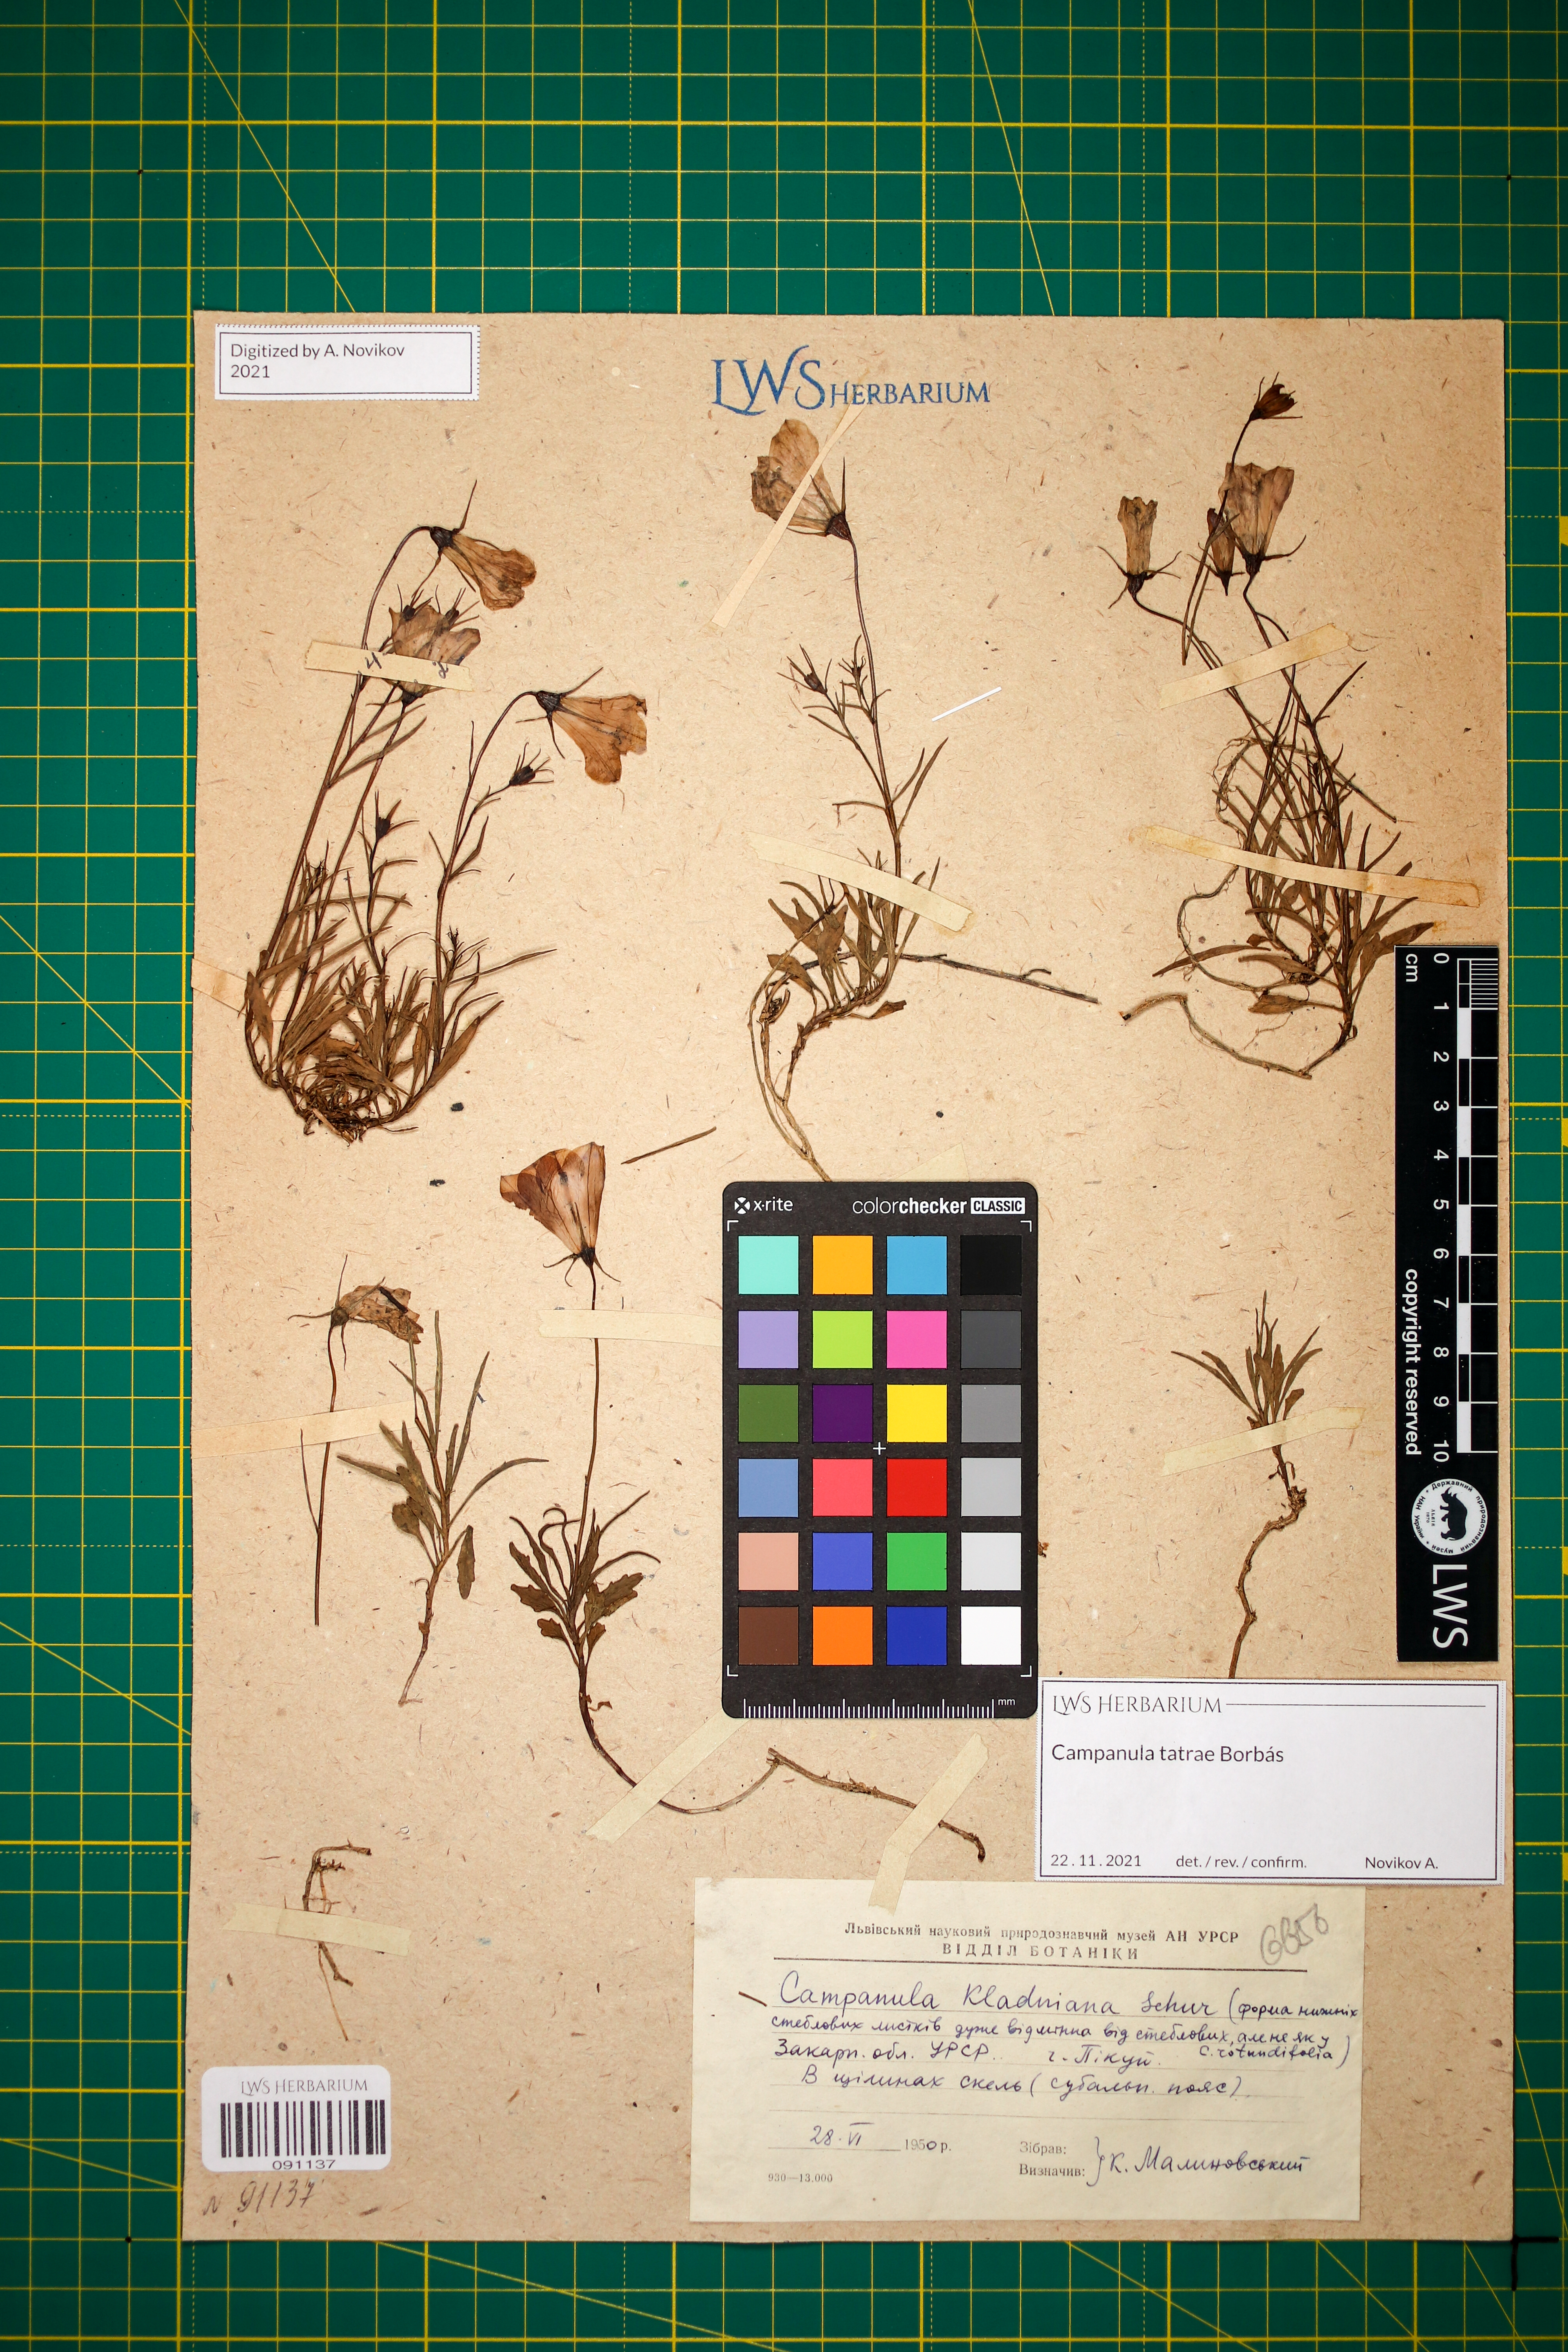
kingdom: Plantae
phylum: Tracheophyta
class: Magnoliopsida
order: Asterales
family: Campanulaceae
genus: Campanula
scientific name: Campanula kladniana
